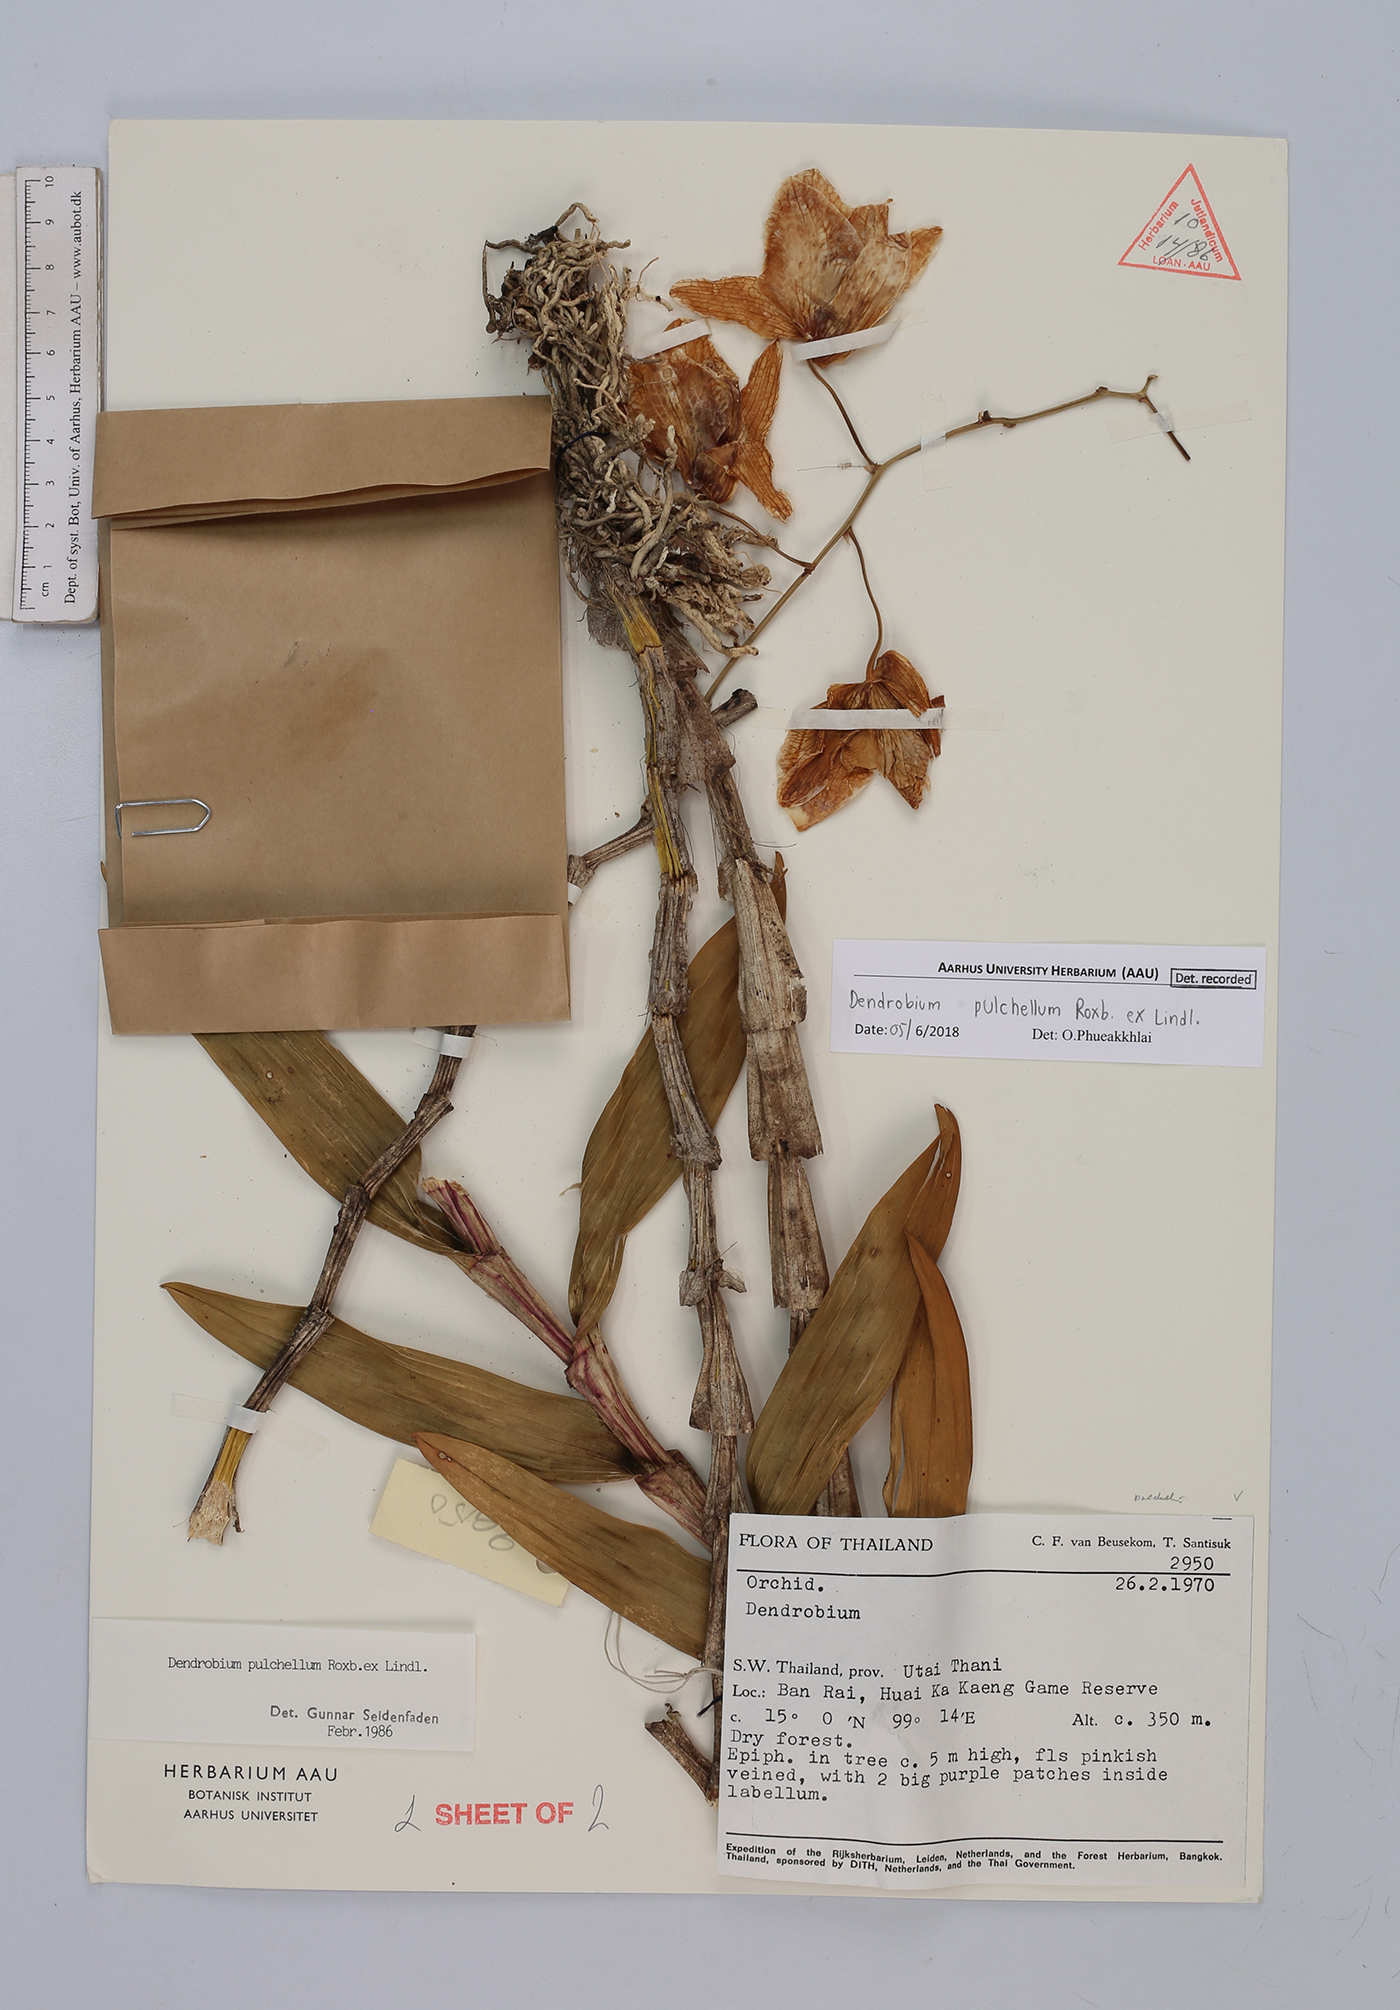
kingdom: Plantae
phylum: Tracheophyta
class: Liliopsida
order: Asparagales
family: Orchidaceae
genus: Dendrobium
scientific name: Dendrobium pulchellum
